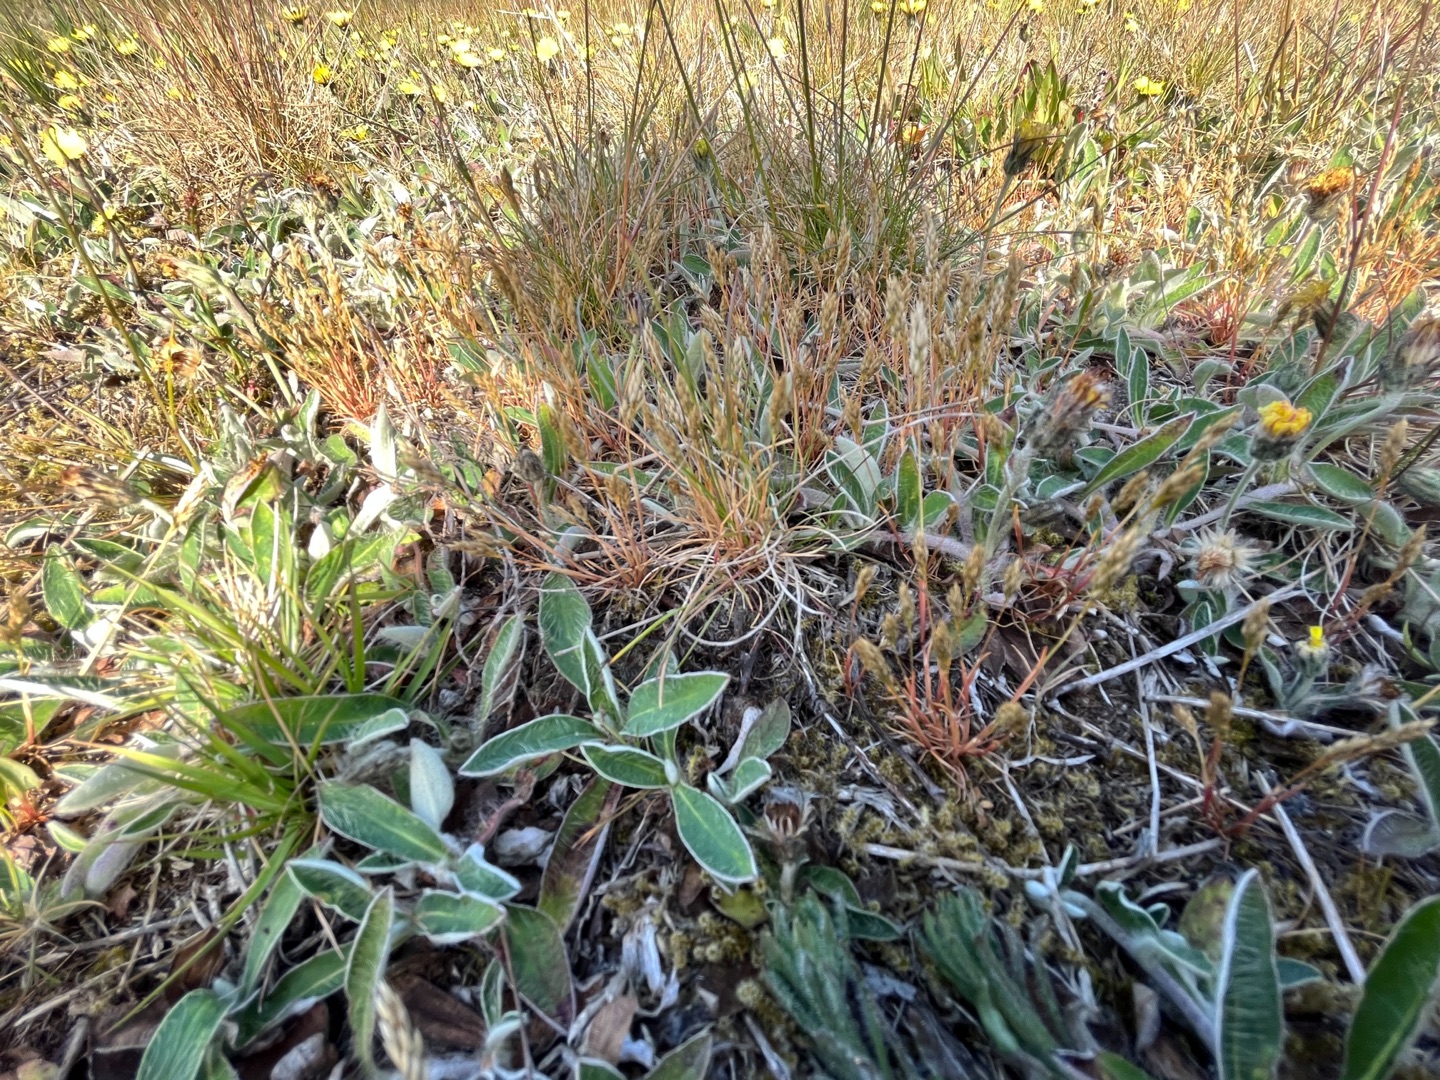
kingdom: Plantae
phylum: Tracheophyta
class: Liliopsida
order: Poales
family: Poaceae
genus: Aira
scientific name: Aira praecox
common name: Tidlig dværgbunke
